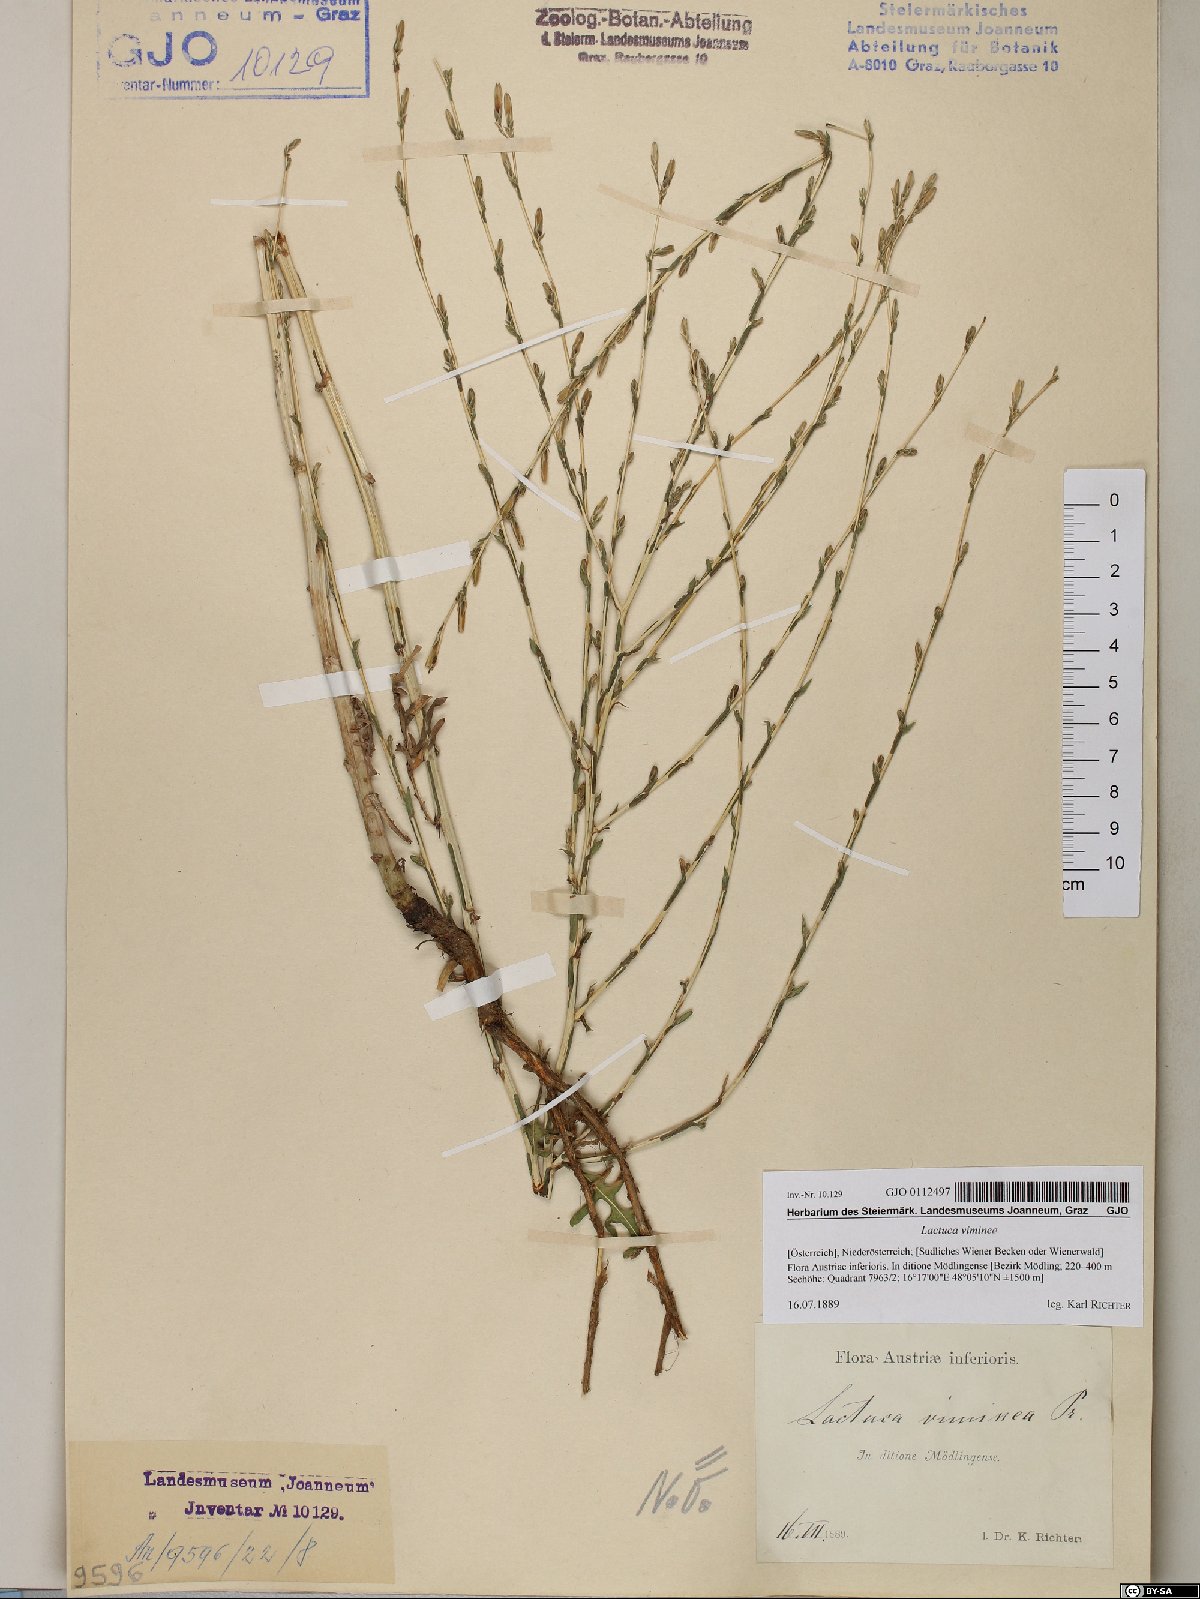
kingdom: Plantae
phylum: Tracheophyta
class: Magnoliopsida
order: Asterales
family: Asteraceae
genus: Lactuca
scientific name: Lactuca viminea
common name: Pliant lettuce
